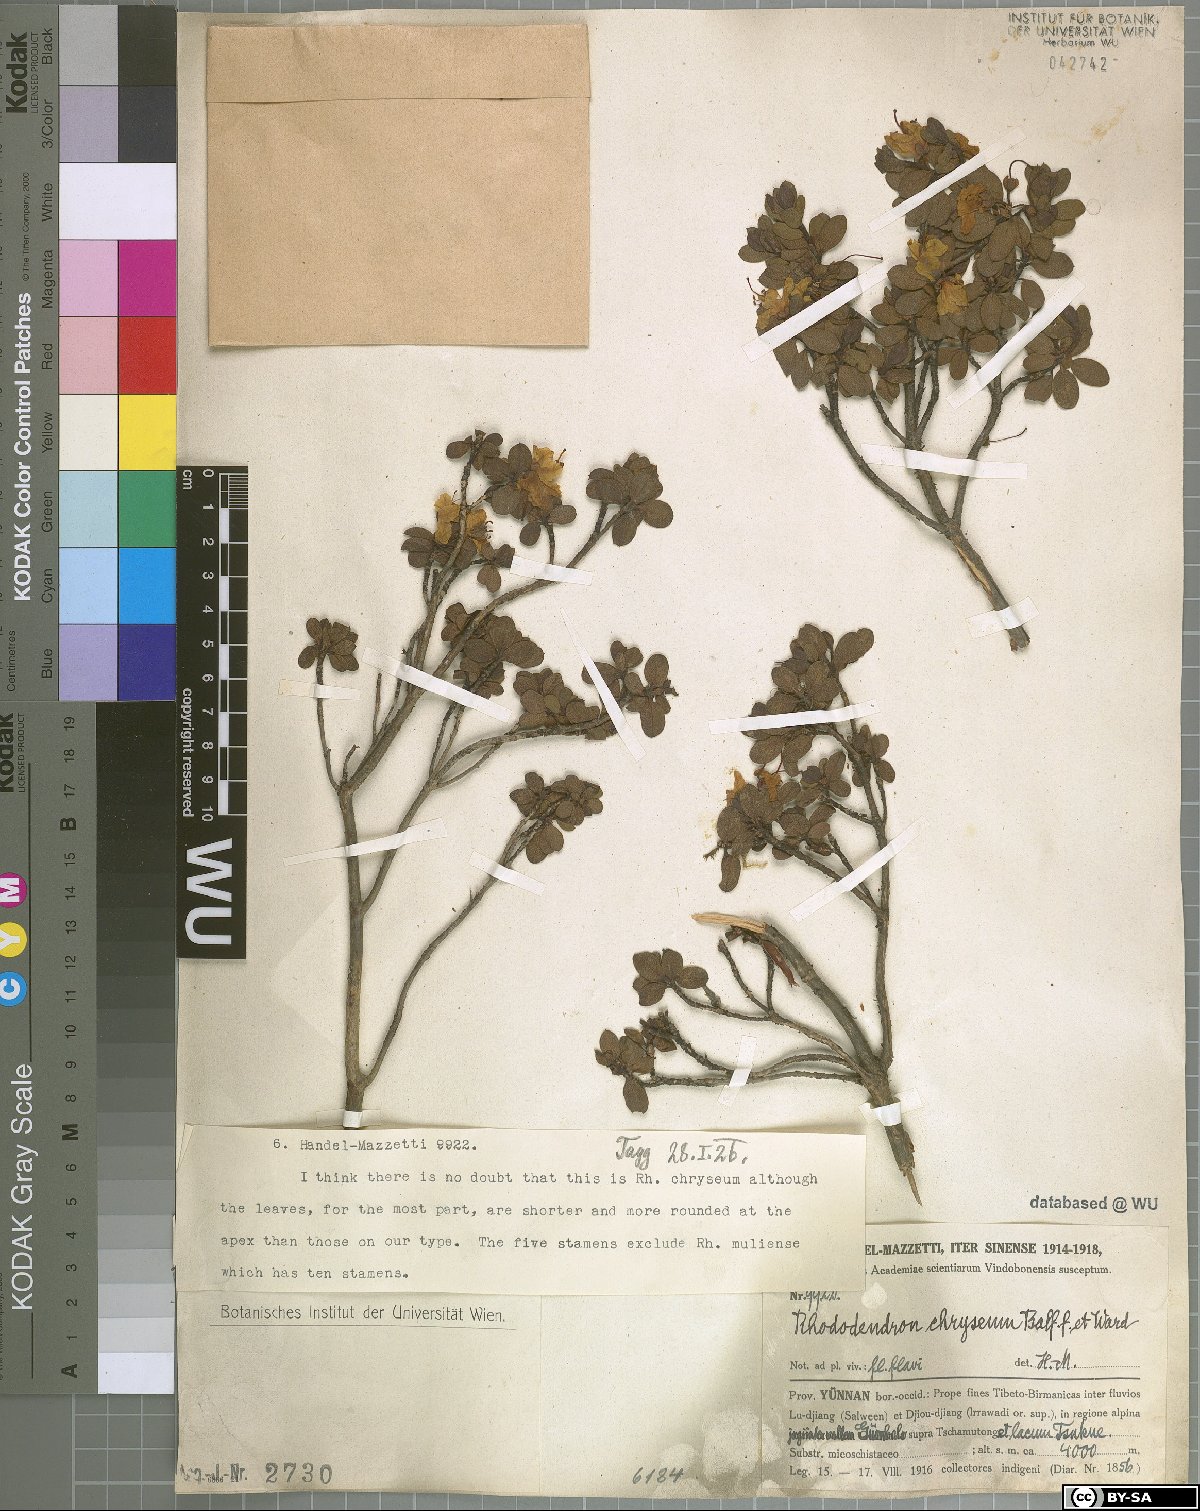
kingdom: Plantae
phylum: Tracheophyta
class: Magnoliopsida
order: Ericales
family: Ericaceae
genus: Rhododendron
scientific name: Rhododendron rupicola
